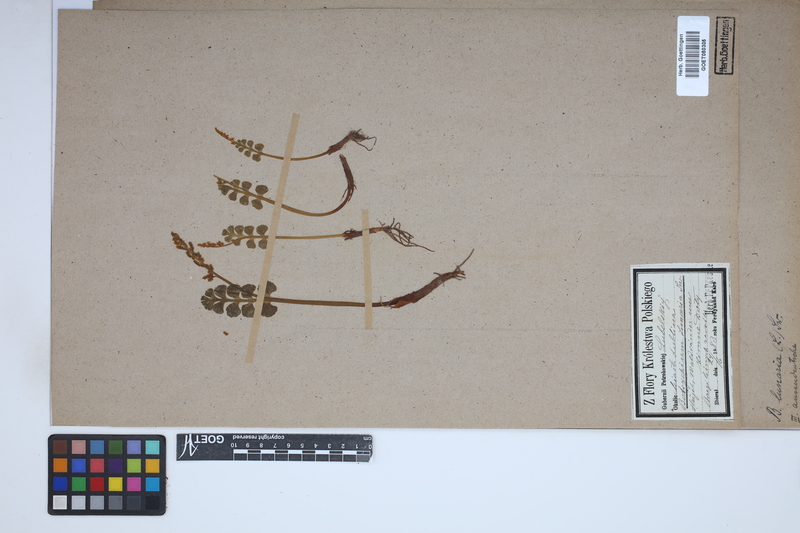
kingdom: Plantae
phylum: Tracheophyta
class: Polypodiopsida
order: Ophioglossales
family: Ophioglossaceae
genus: Botrychium
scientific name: Botrychium lunaria
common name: Moonwort
